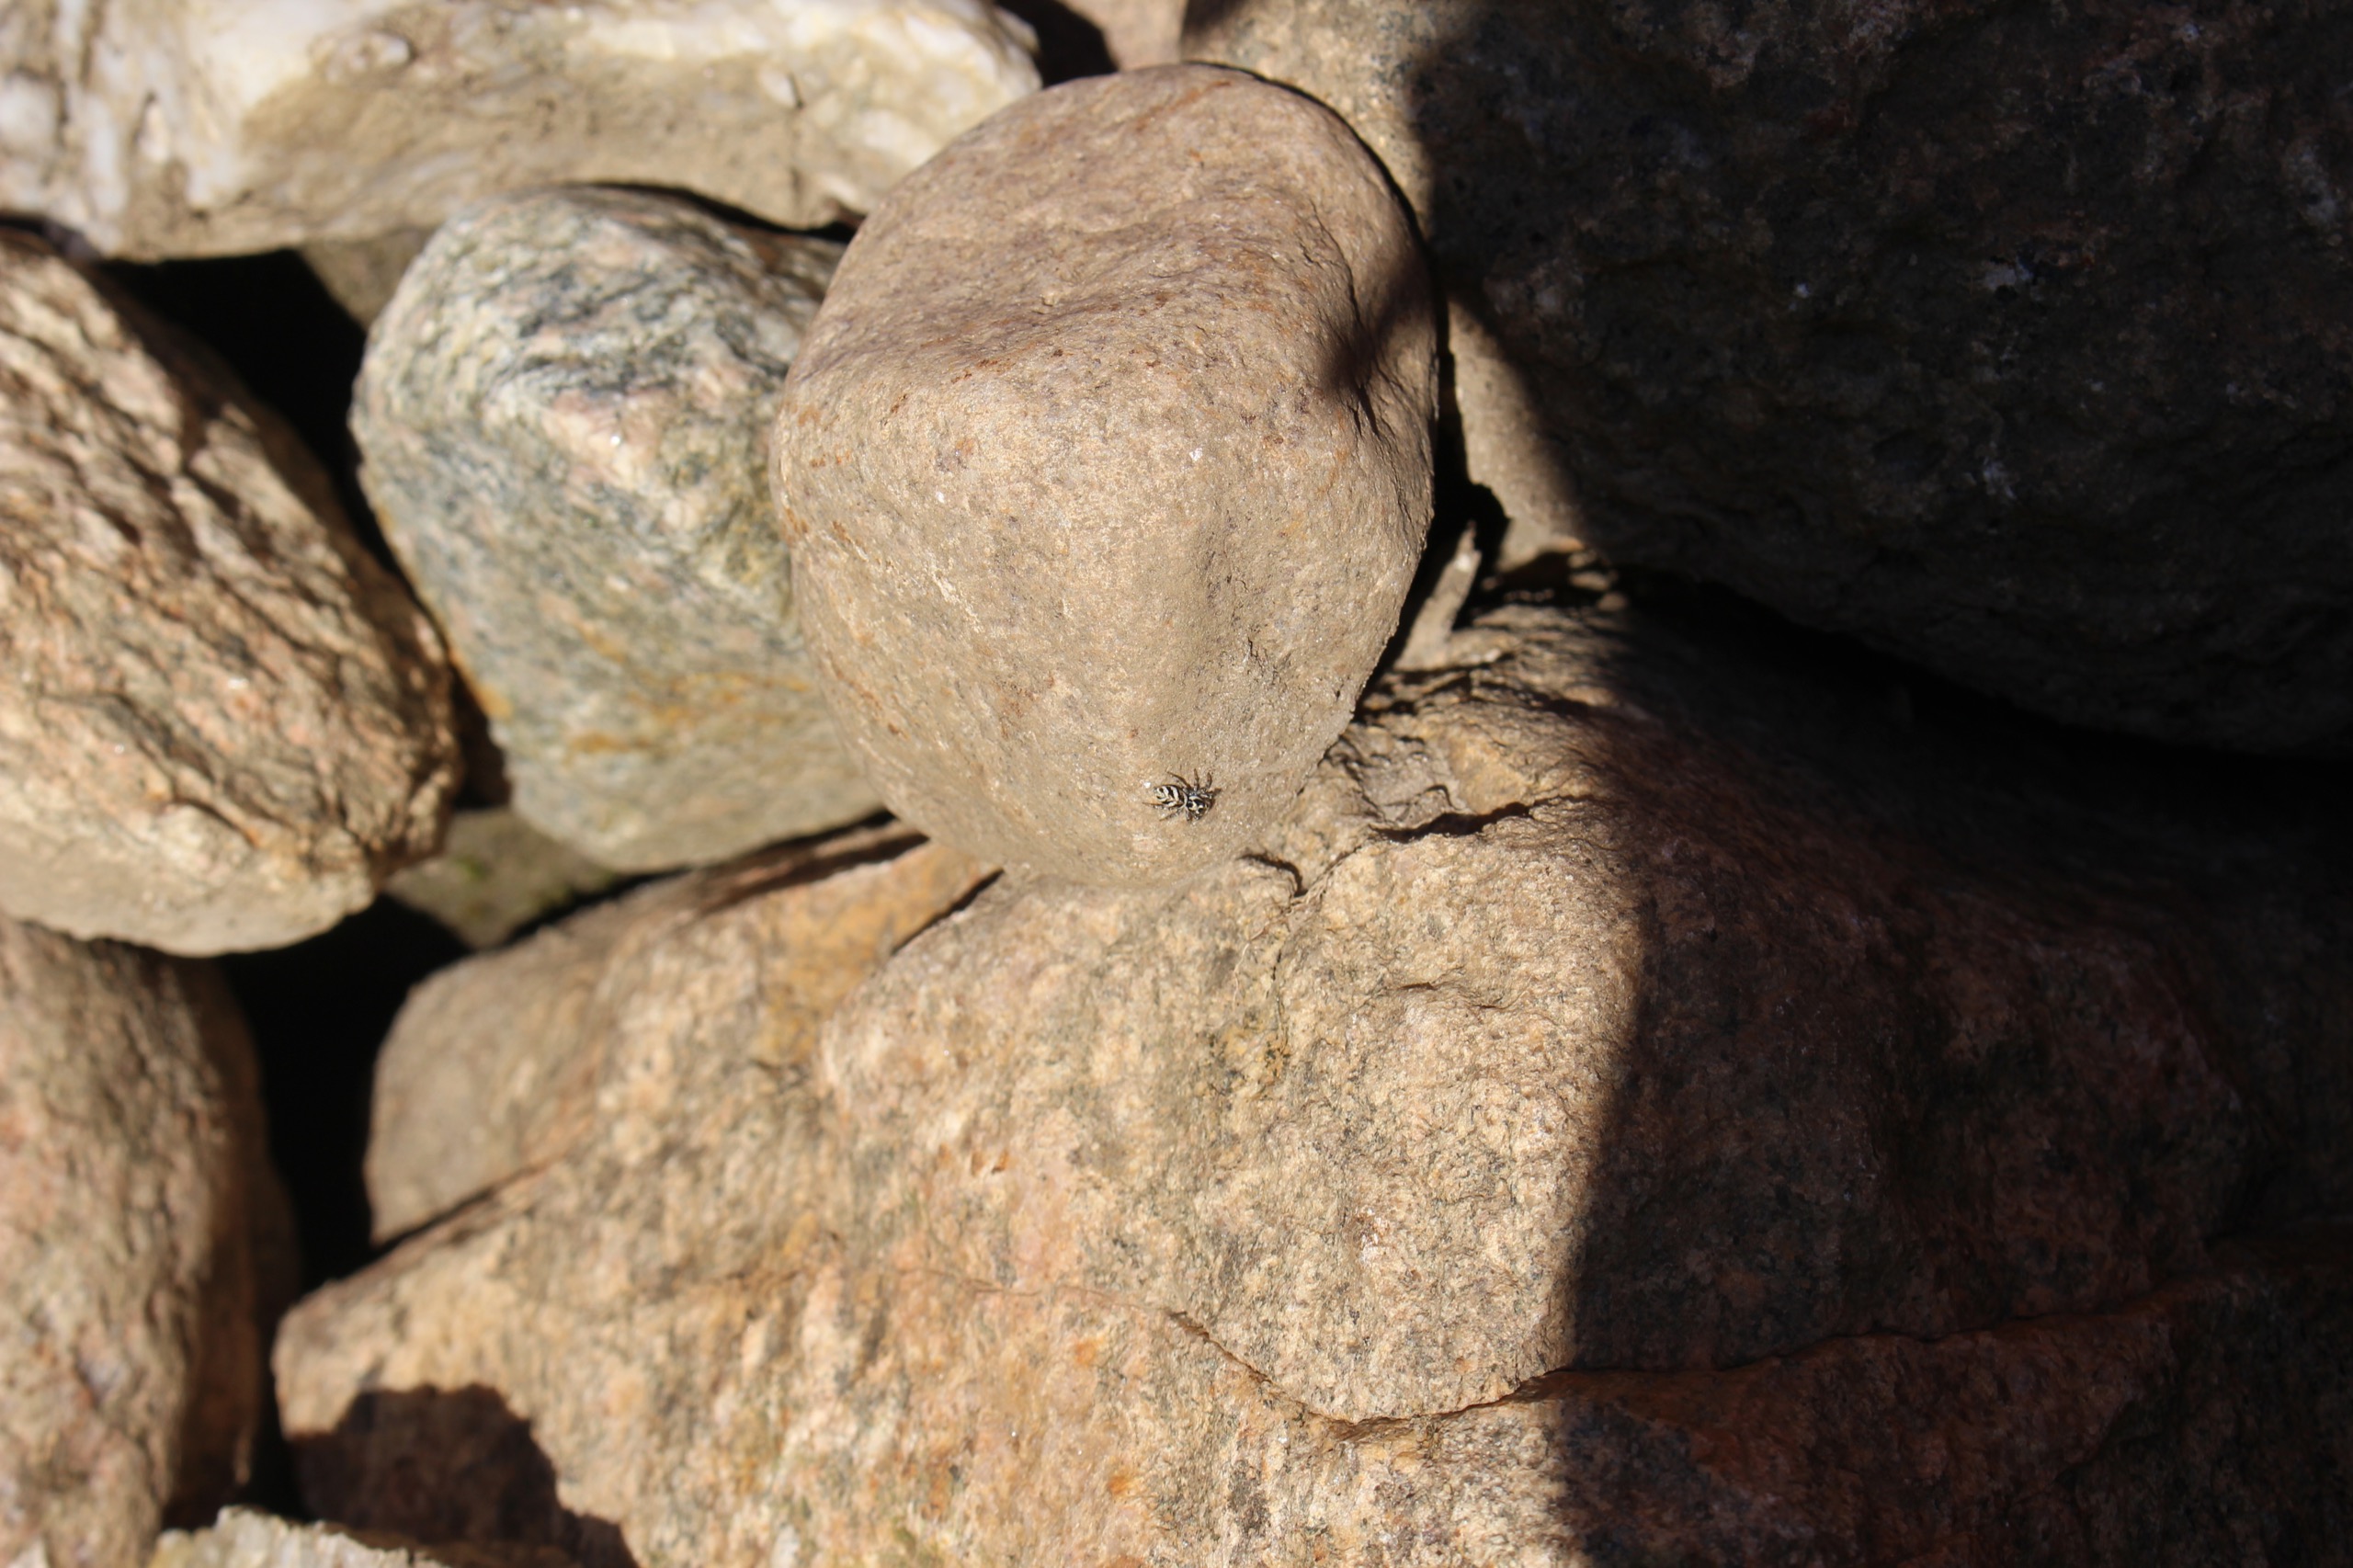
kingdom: Animalia
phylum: Arthropoda
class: Arachnida
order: Araneae
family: Salticidae
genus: Salticus
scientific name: Salticus scenicus
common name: Almindelig zebraedderkop
